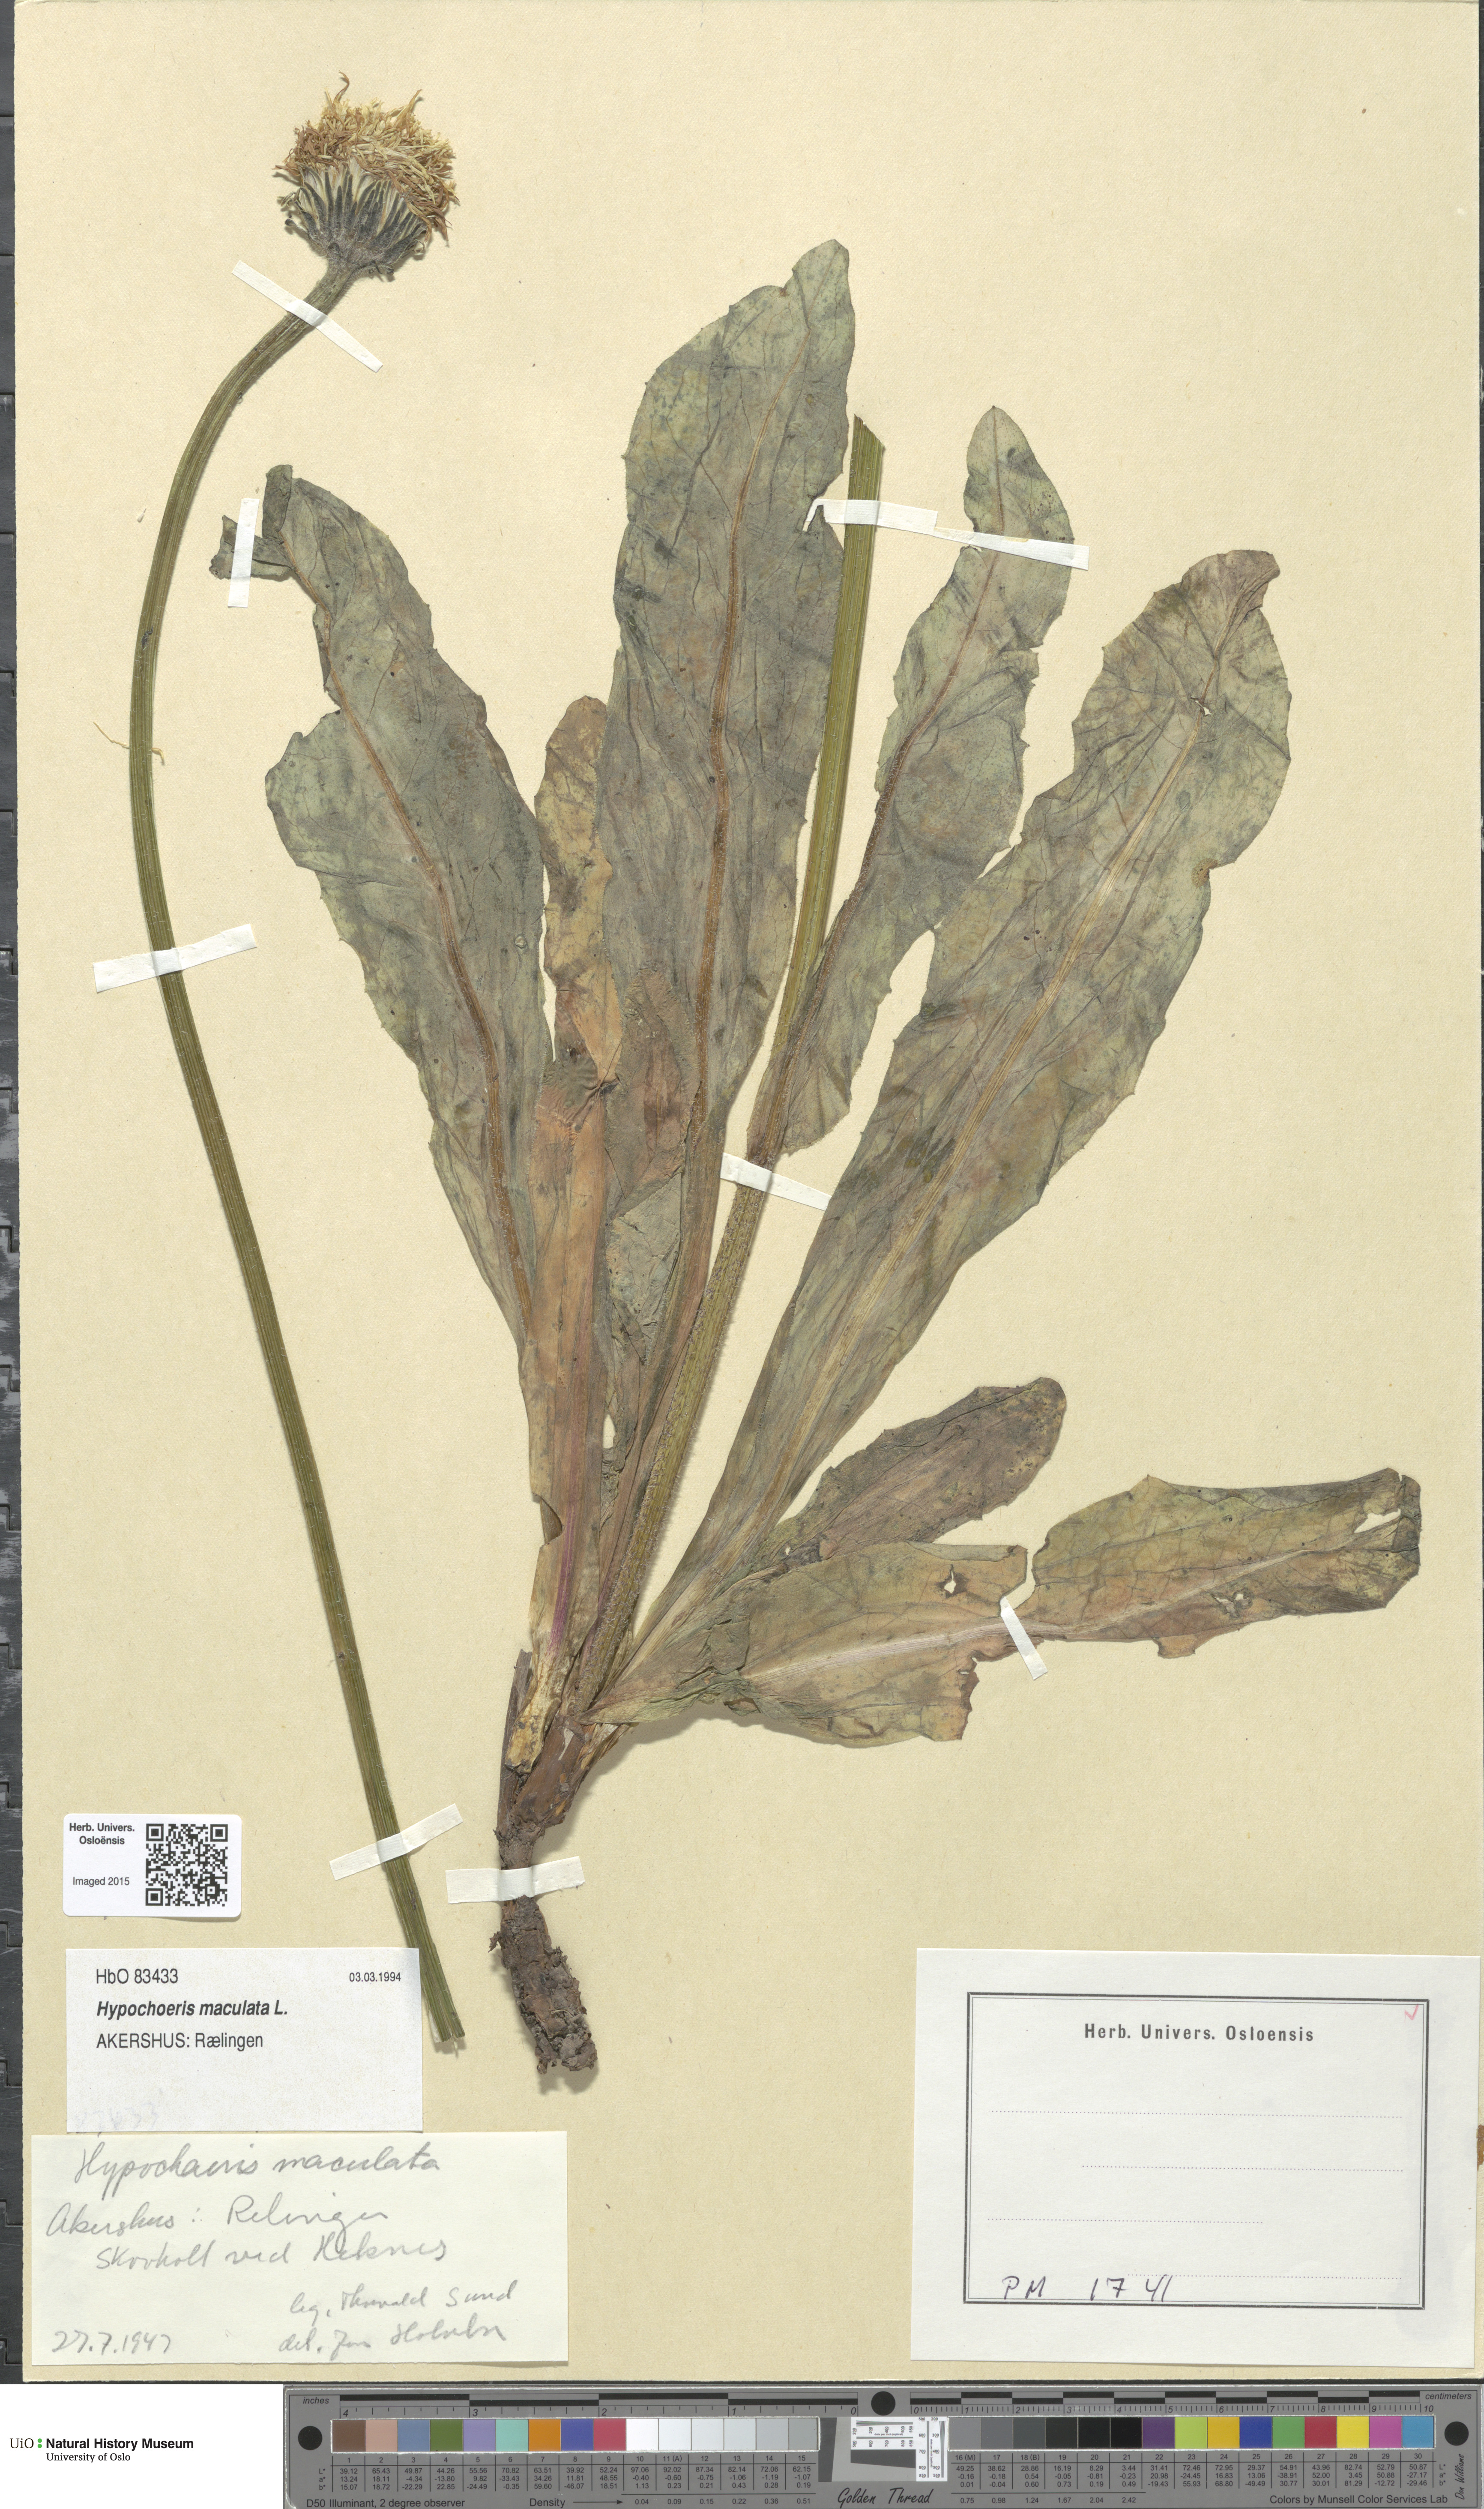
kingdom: Plantae
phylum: Tracheophyta
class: Magnoliopsida
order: Asterales
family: Asteraceae
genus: Trommsdorffia
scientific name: Trommsdorffia maculata
